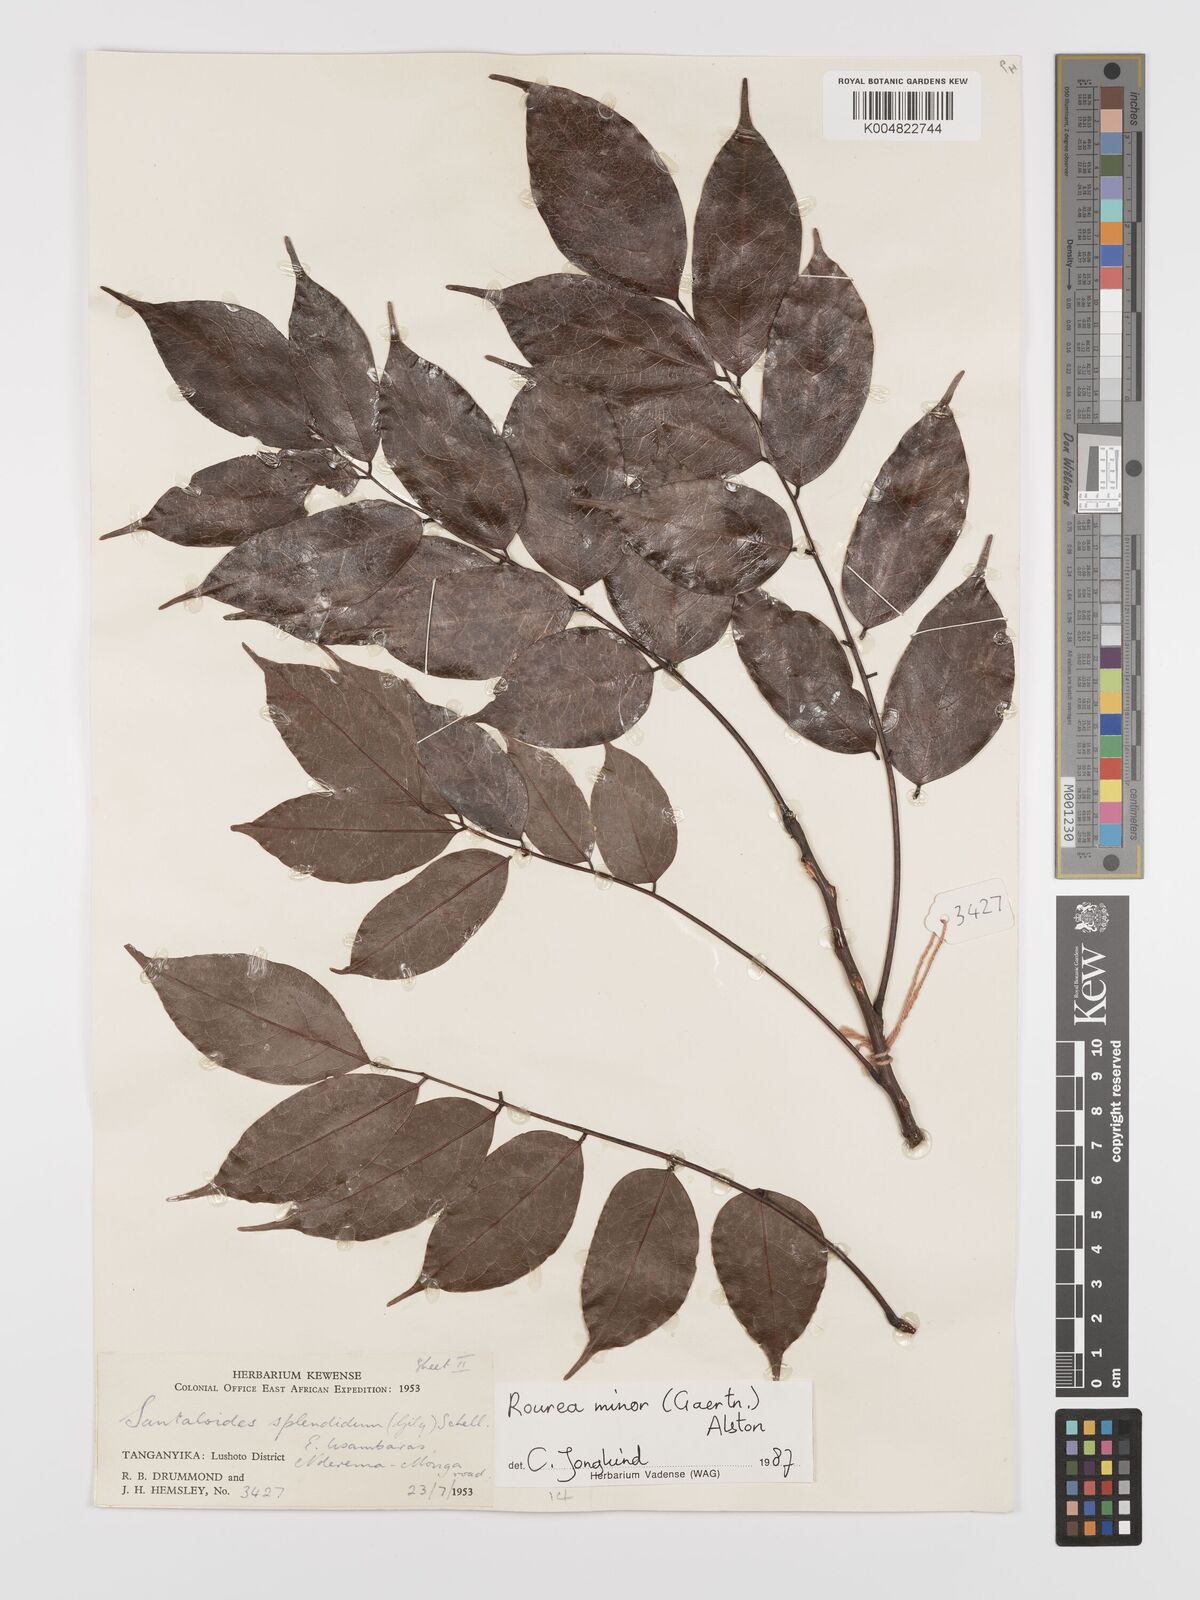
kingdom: Plantae
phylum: Tracheophyta
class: Magnoliopsida
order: Oxalidales
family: Connaraceae
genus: Rourea
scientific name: Rourea minor
